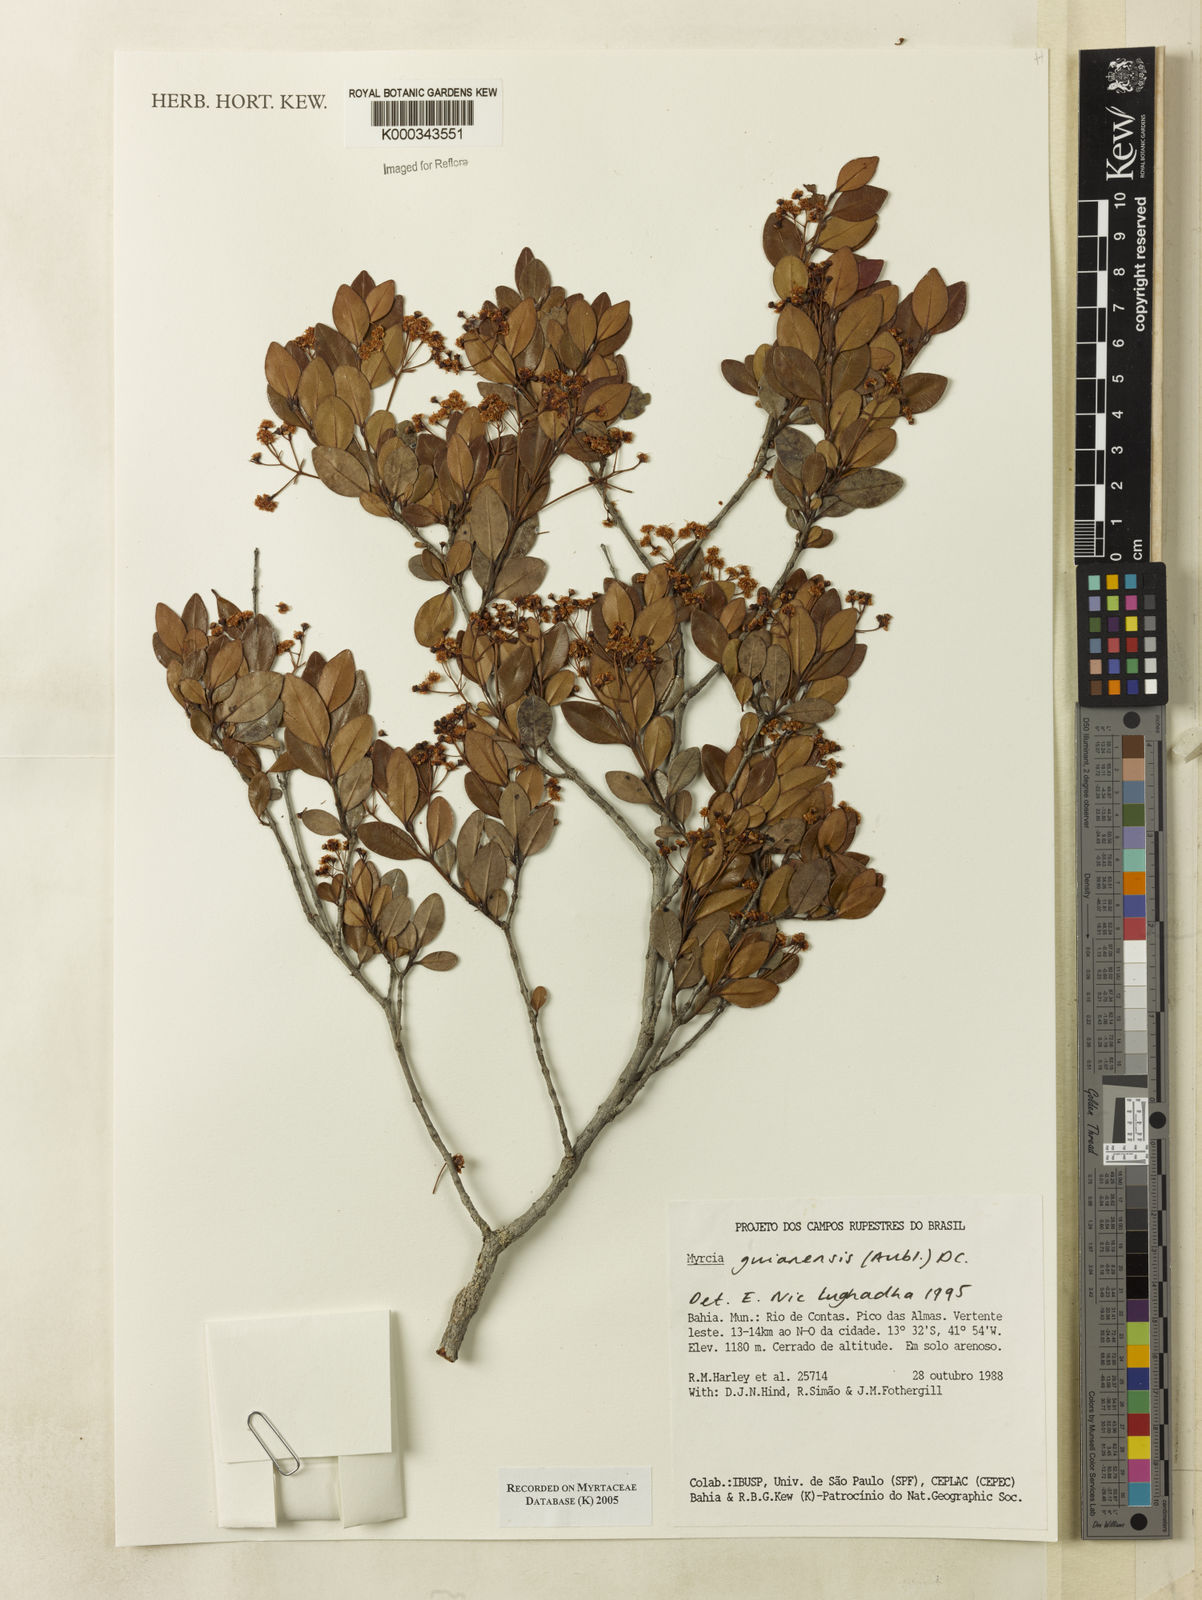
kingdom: Plantae
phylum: Tracheophyta
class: Magnoliopsida
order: Myrtales
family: Myrtaceae
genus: Myrcia
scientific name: Myrcia guianensis
